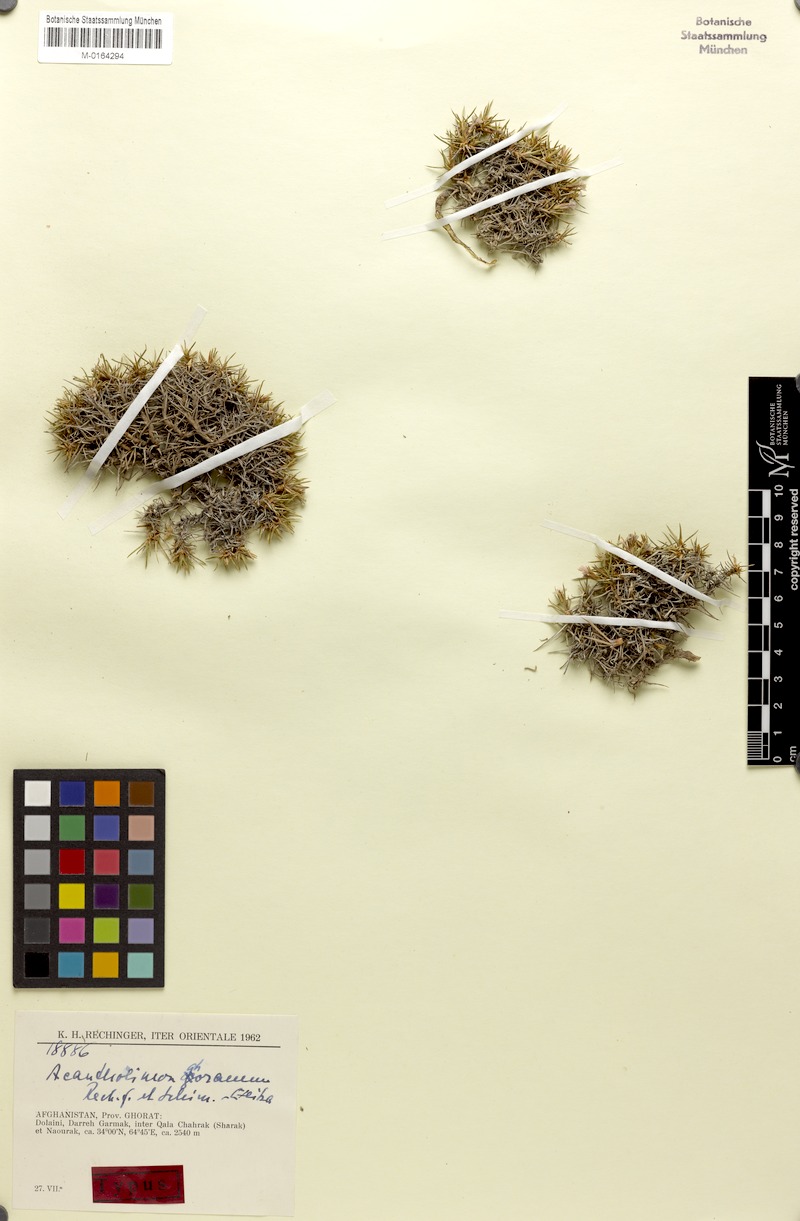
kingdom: Plantae
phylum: Tracheophyta
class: Magnoliopsida
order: Caryophyllales
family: Plumbaginaceae
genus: Acantholimon
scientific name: Acantholimon ghoranum
